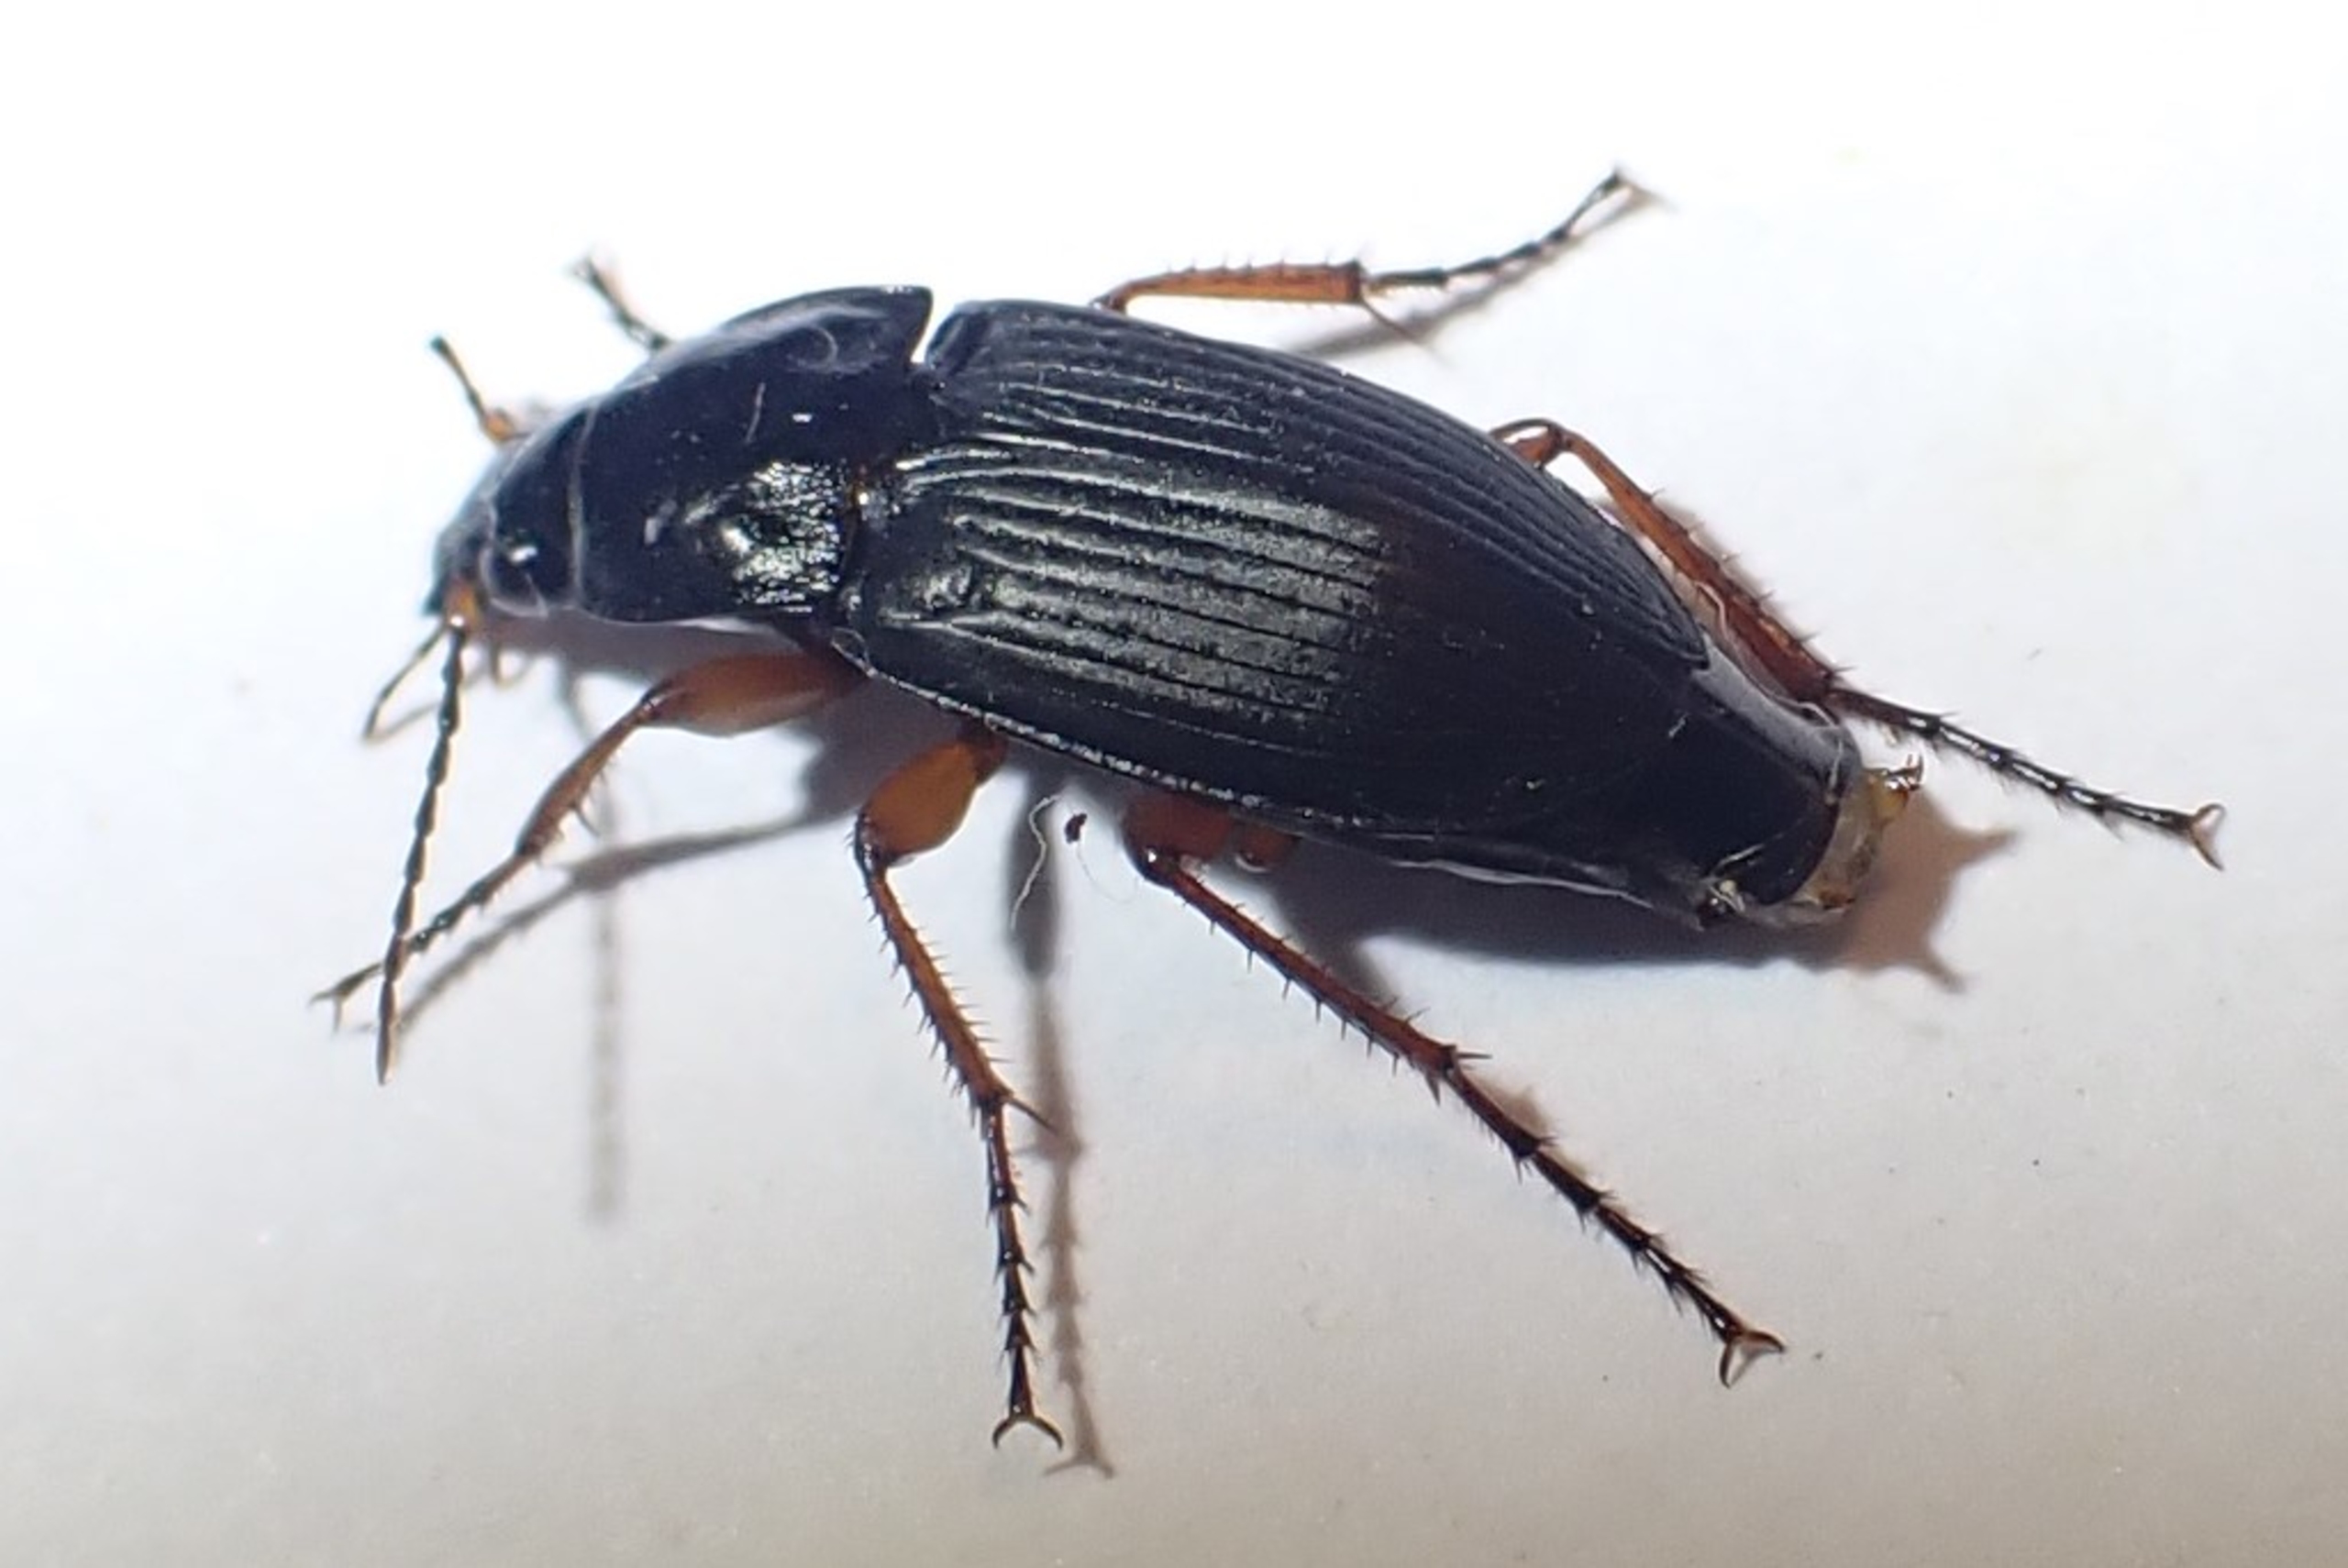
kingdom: Animalia
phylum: Arthropoda
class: Insecta
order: Coleoptera
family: Carabidae
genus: Calathus
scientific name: Calathus fuscipes
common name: Stor torpedoløber
